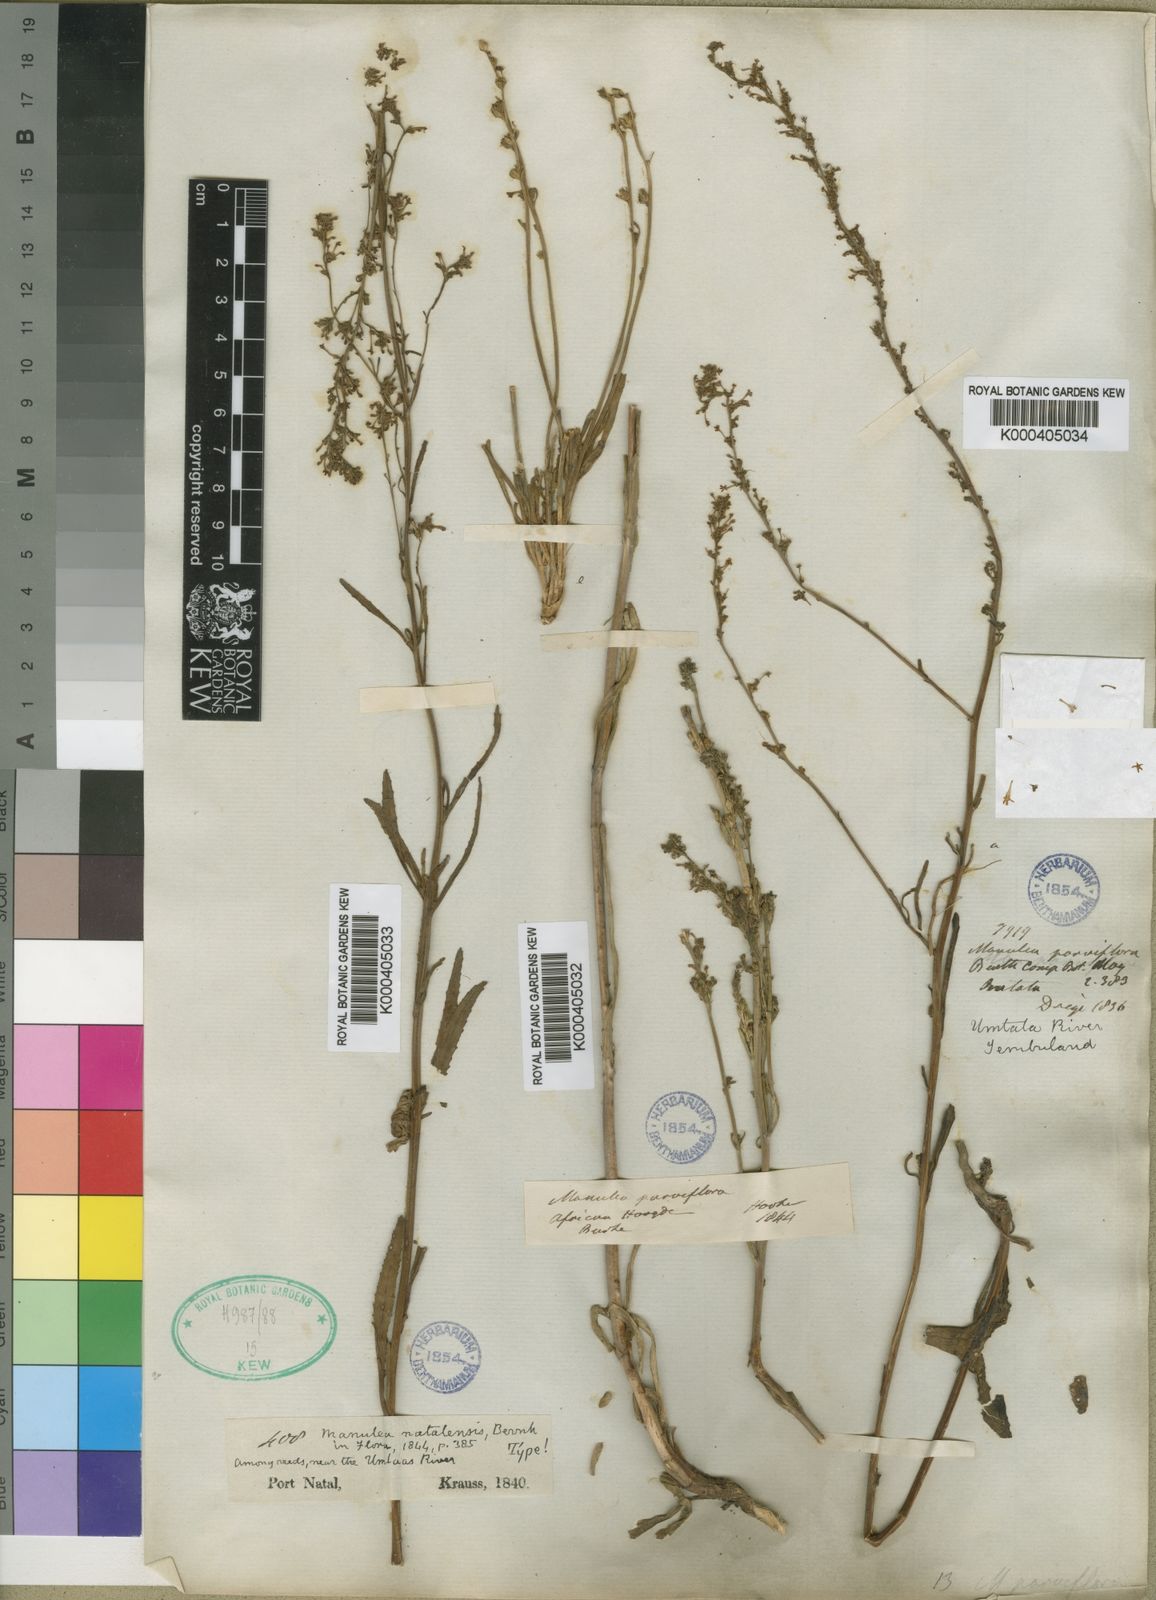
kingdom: Plantae
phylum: Tracheophyta
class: Magnoliopsida
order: Lamiales
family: Scrophulariaceae
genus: Manulea
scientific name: Manulea parviflora
